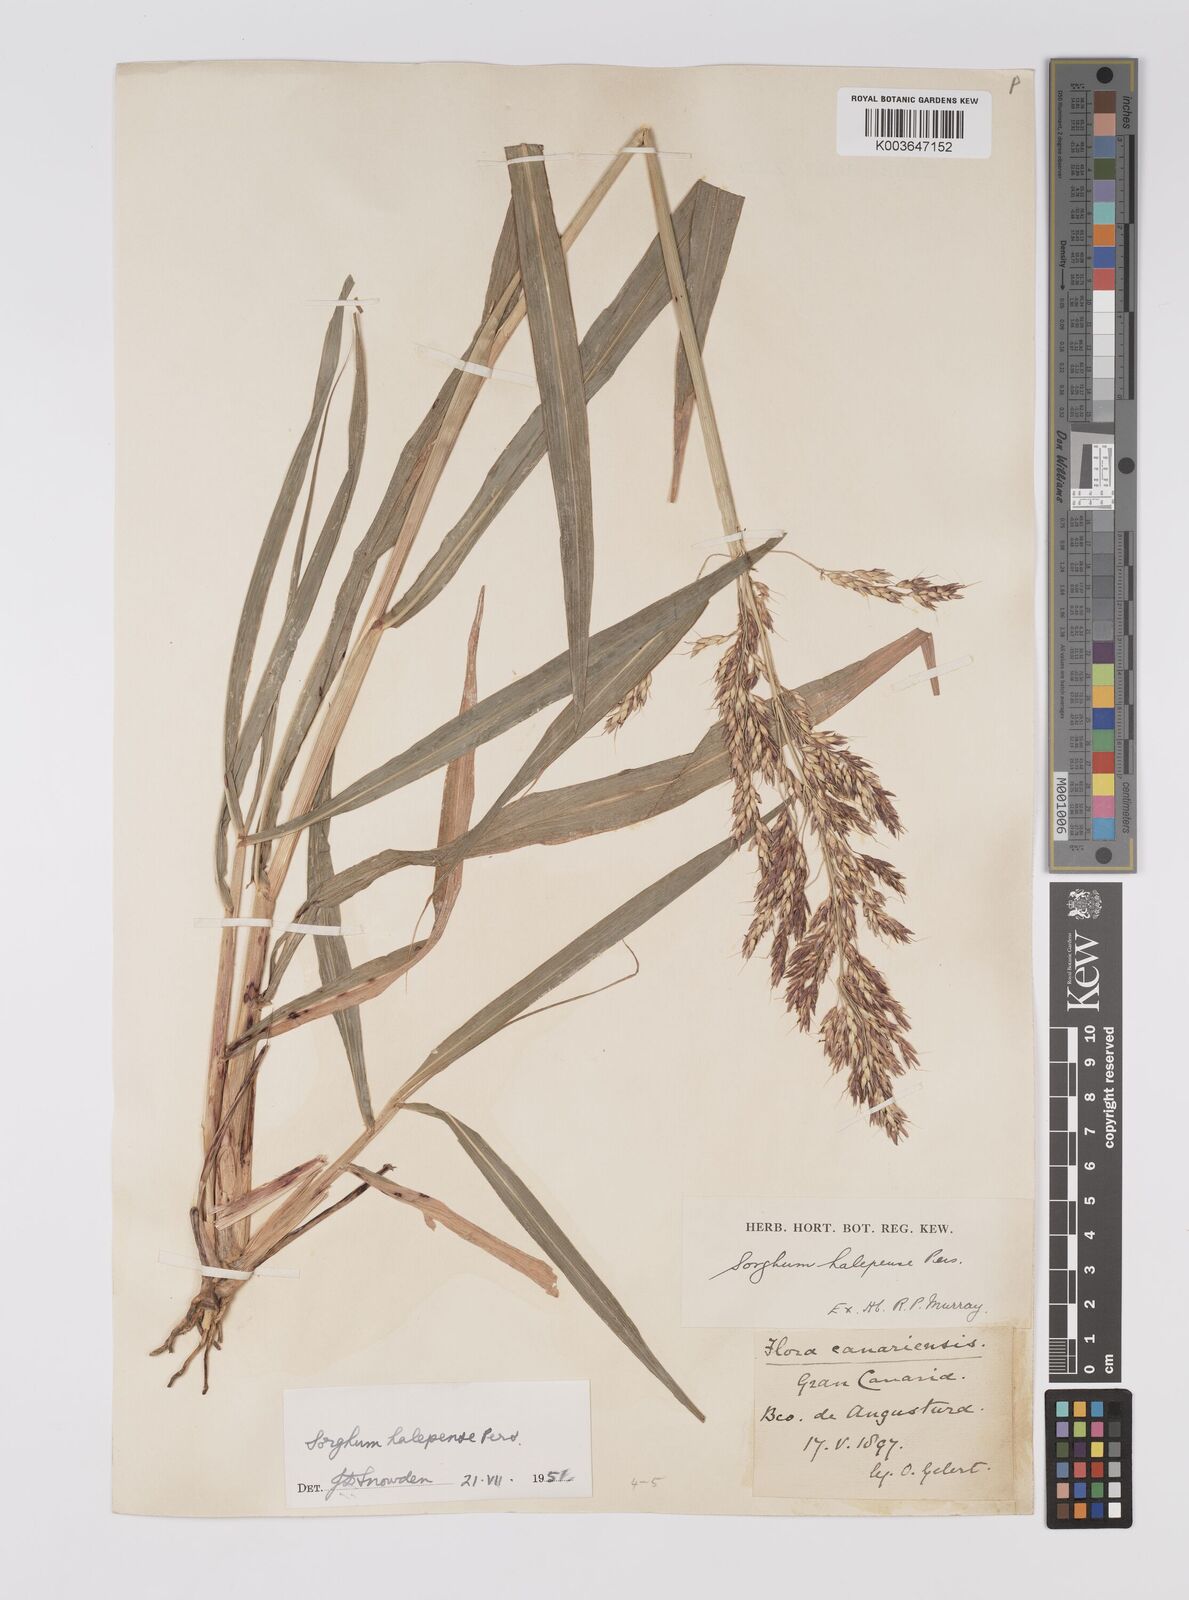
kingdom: Plantae
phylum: Tracheophyta
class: Liliopsida
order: Poales
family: Poaceae
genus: Sorghum
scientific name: Sorghum halepense
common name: Johnson-grass
